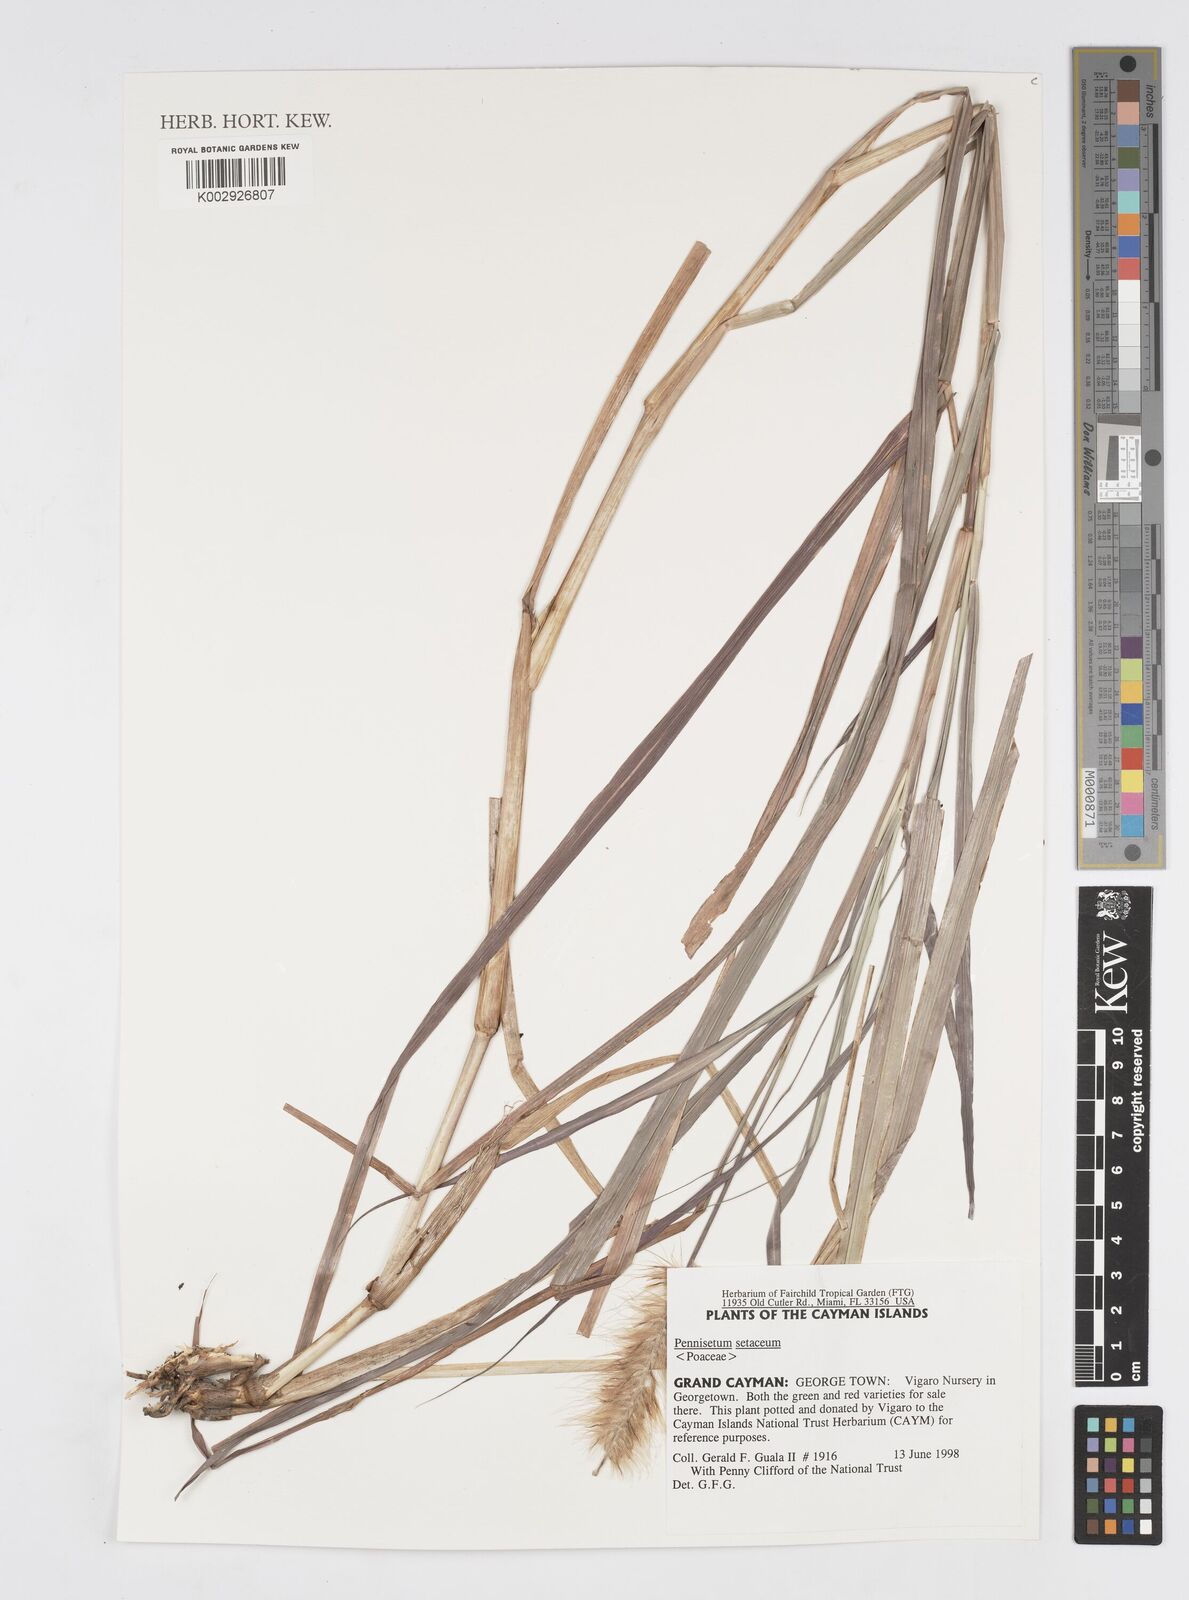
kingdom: Plantae
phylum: Tracheophyta
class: Liliopsida
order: Poales
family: Poaceae
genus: Cenchrus
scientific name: Cenchrus Pennisetum spec
